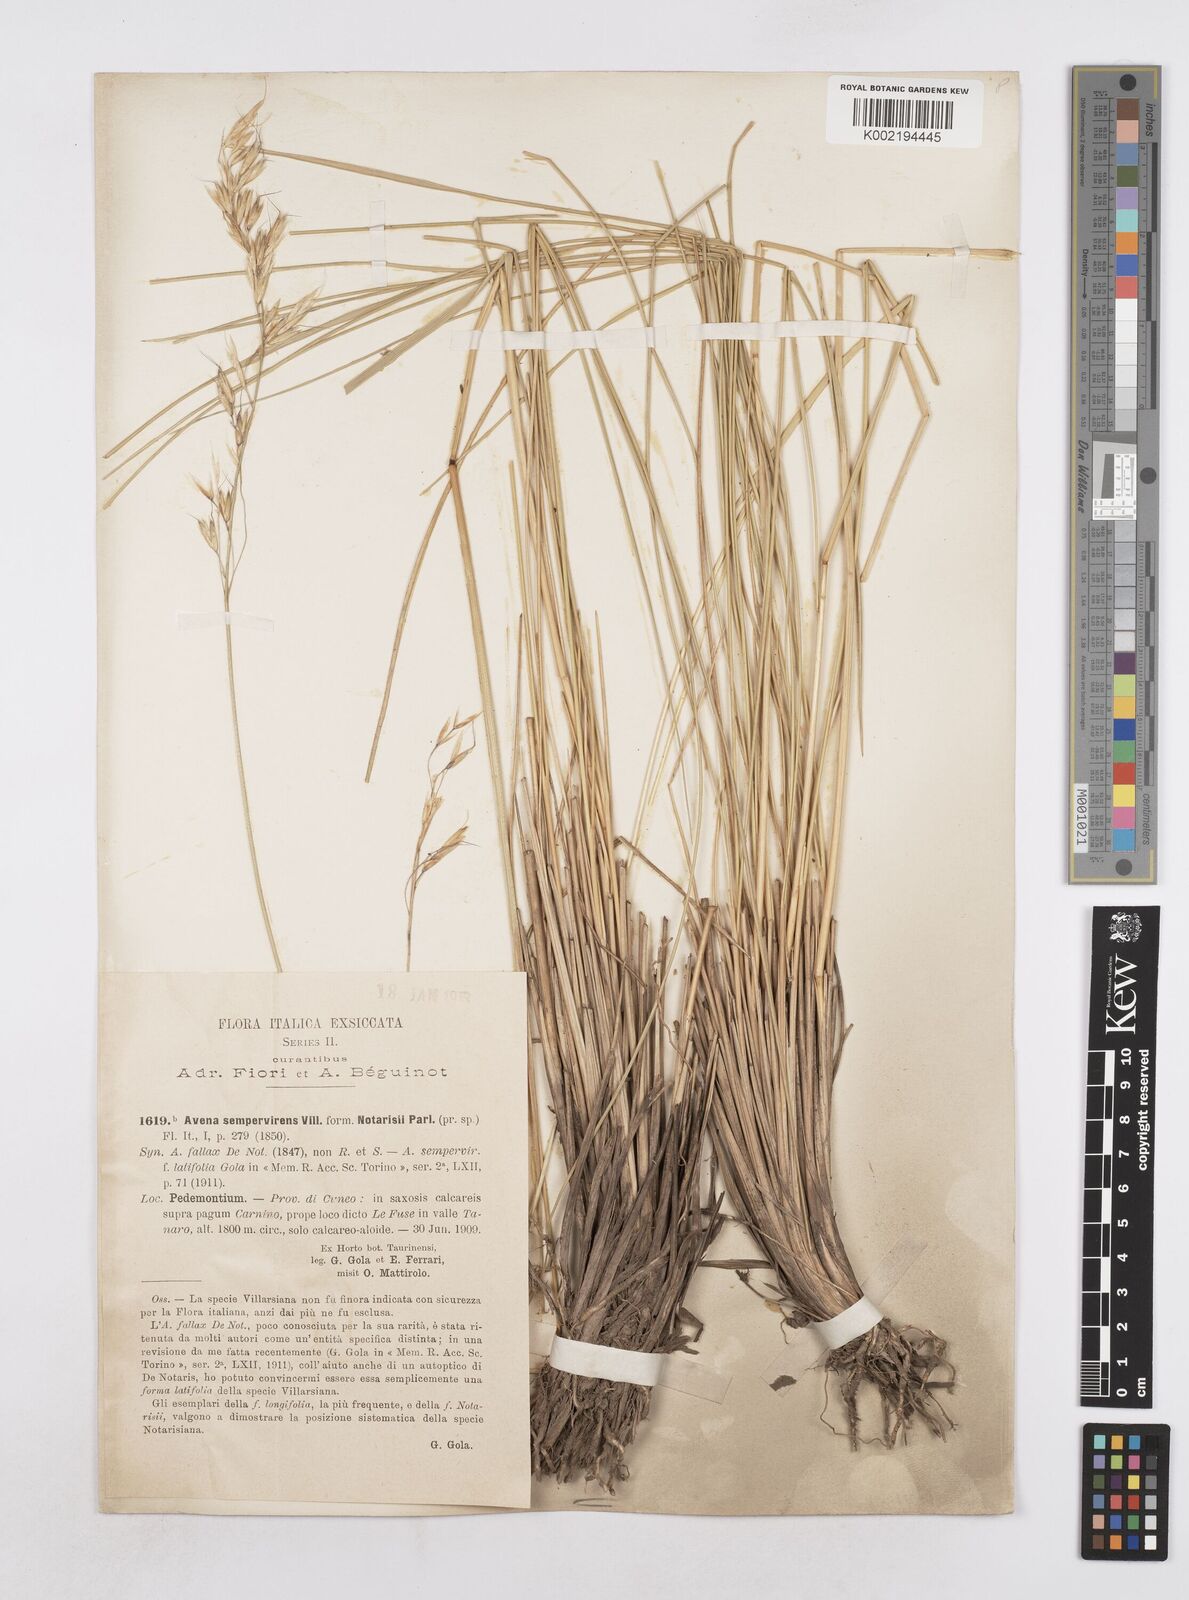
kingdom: Plantae
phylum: Tracheophyta
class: Liliopsida
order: Poales
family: Poaceae
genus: Helictotrichon
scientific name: Helictotrichon sempervirens
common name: Blue oat-grass
